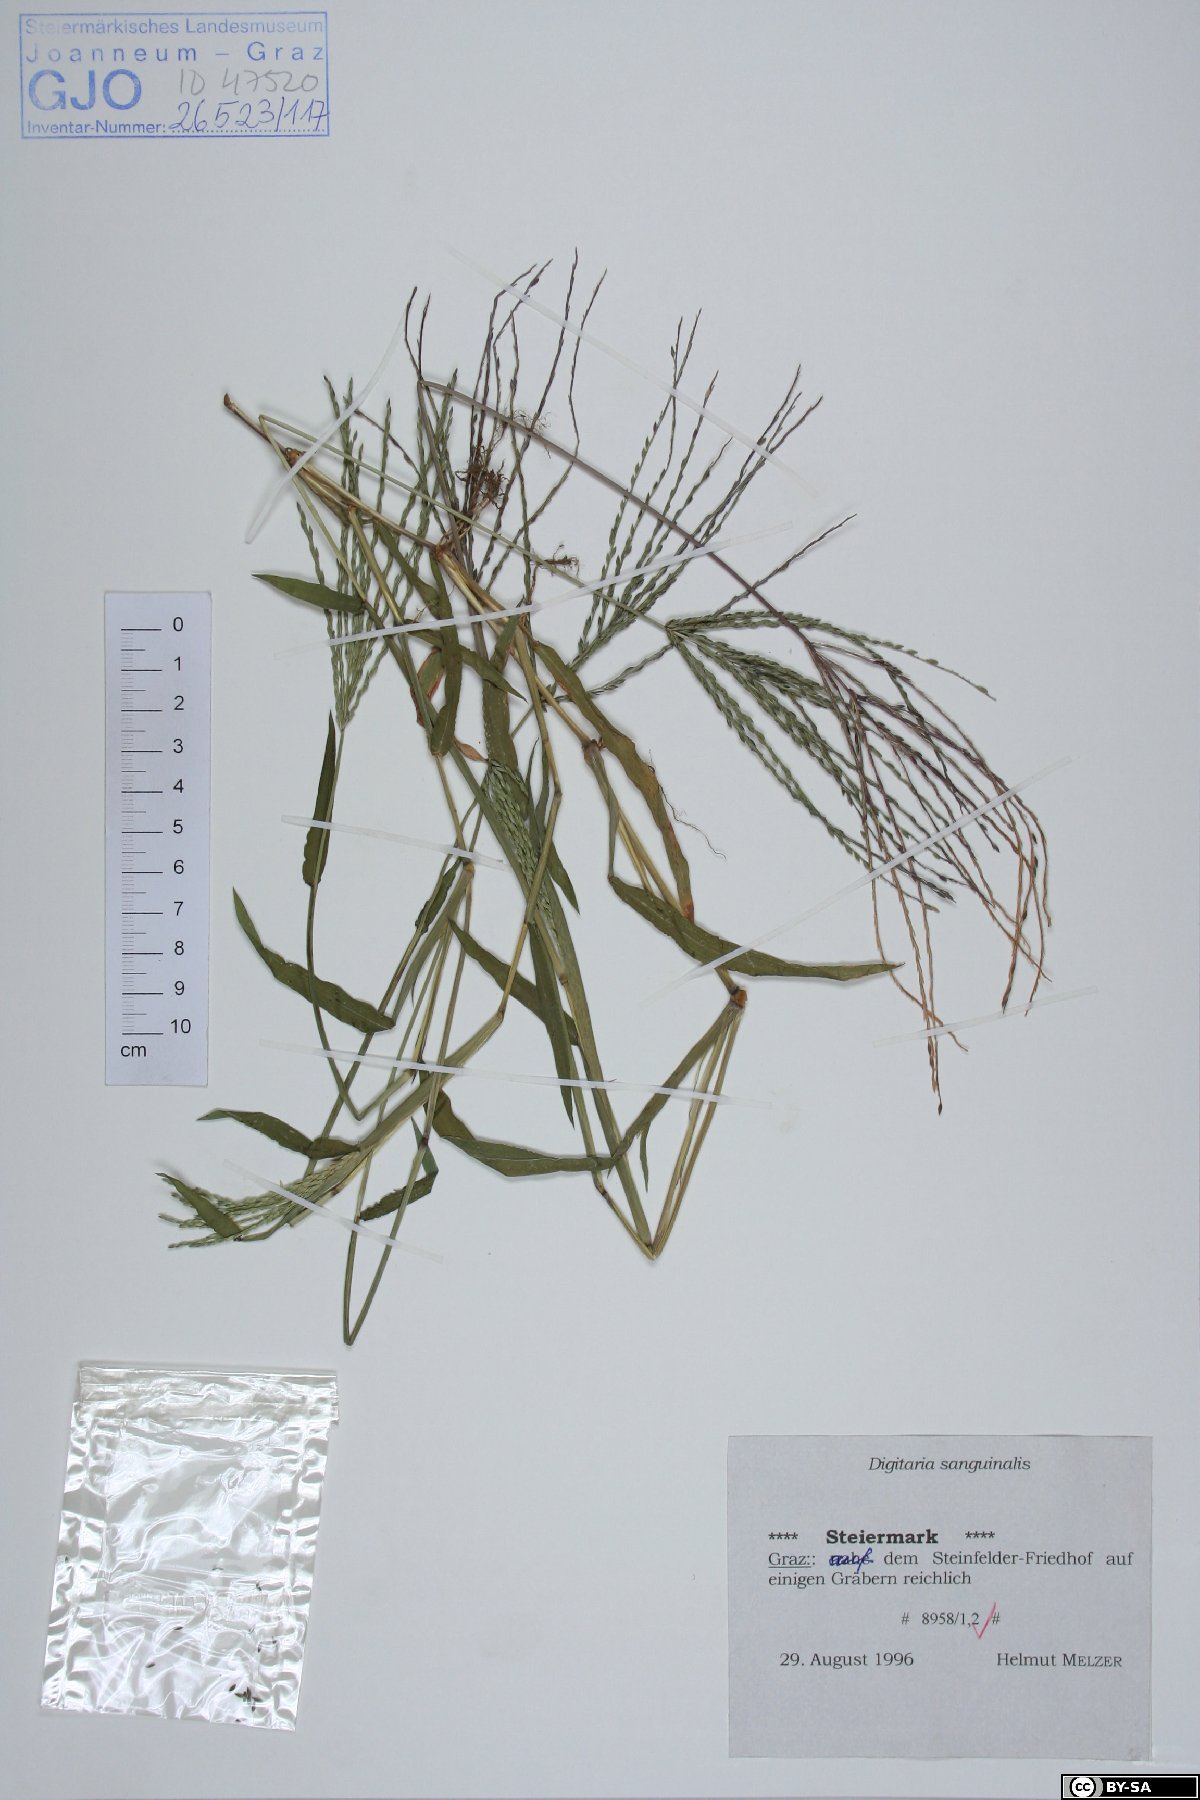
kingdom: Plantae
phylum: Tracheophyta
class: Liliopsida
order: Poales
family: Poaceae
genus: Digitaria
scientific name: Digitaria sanguinalis
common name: Hairy crabgrass
